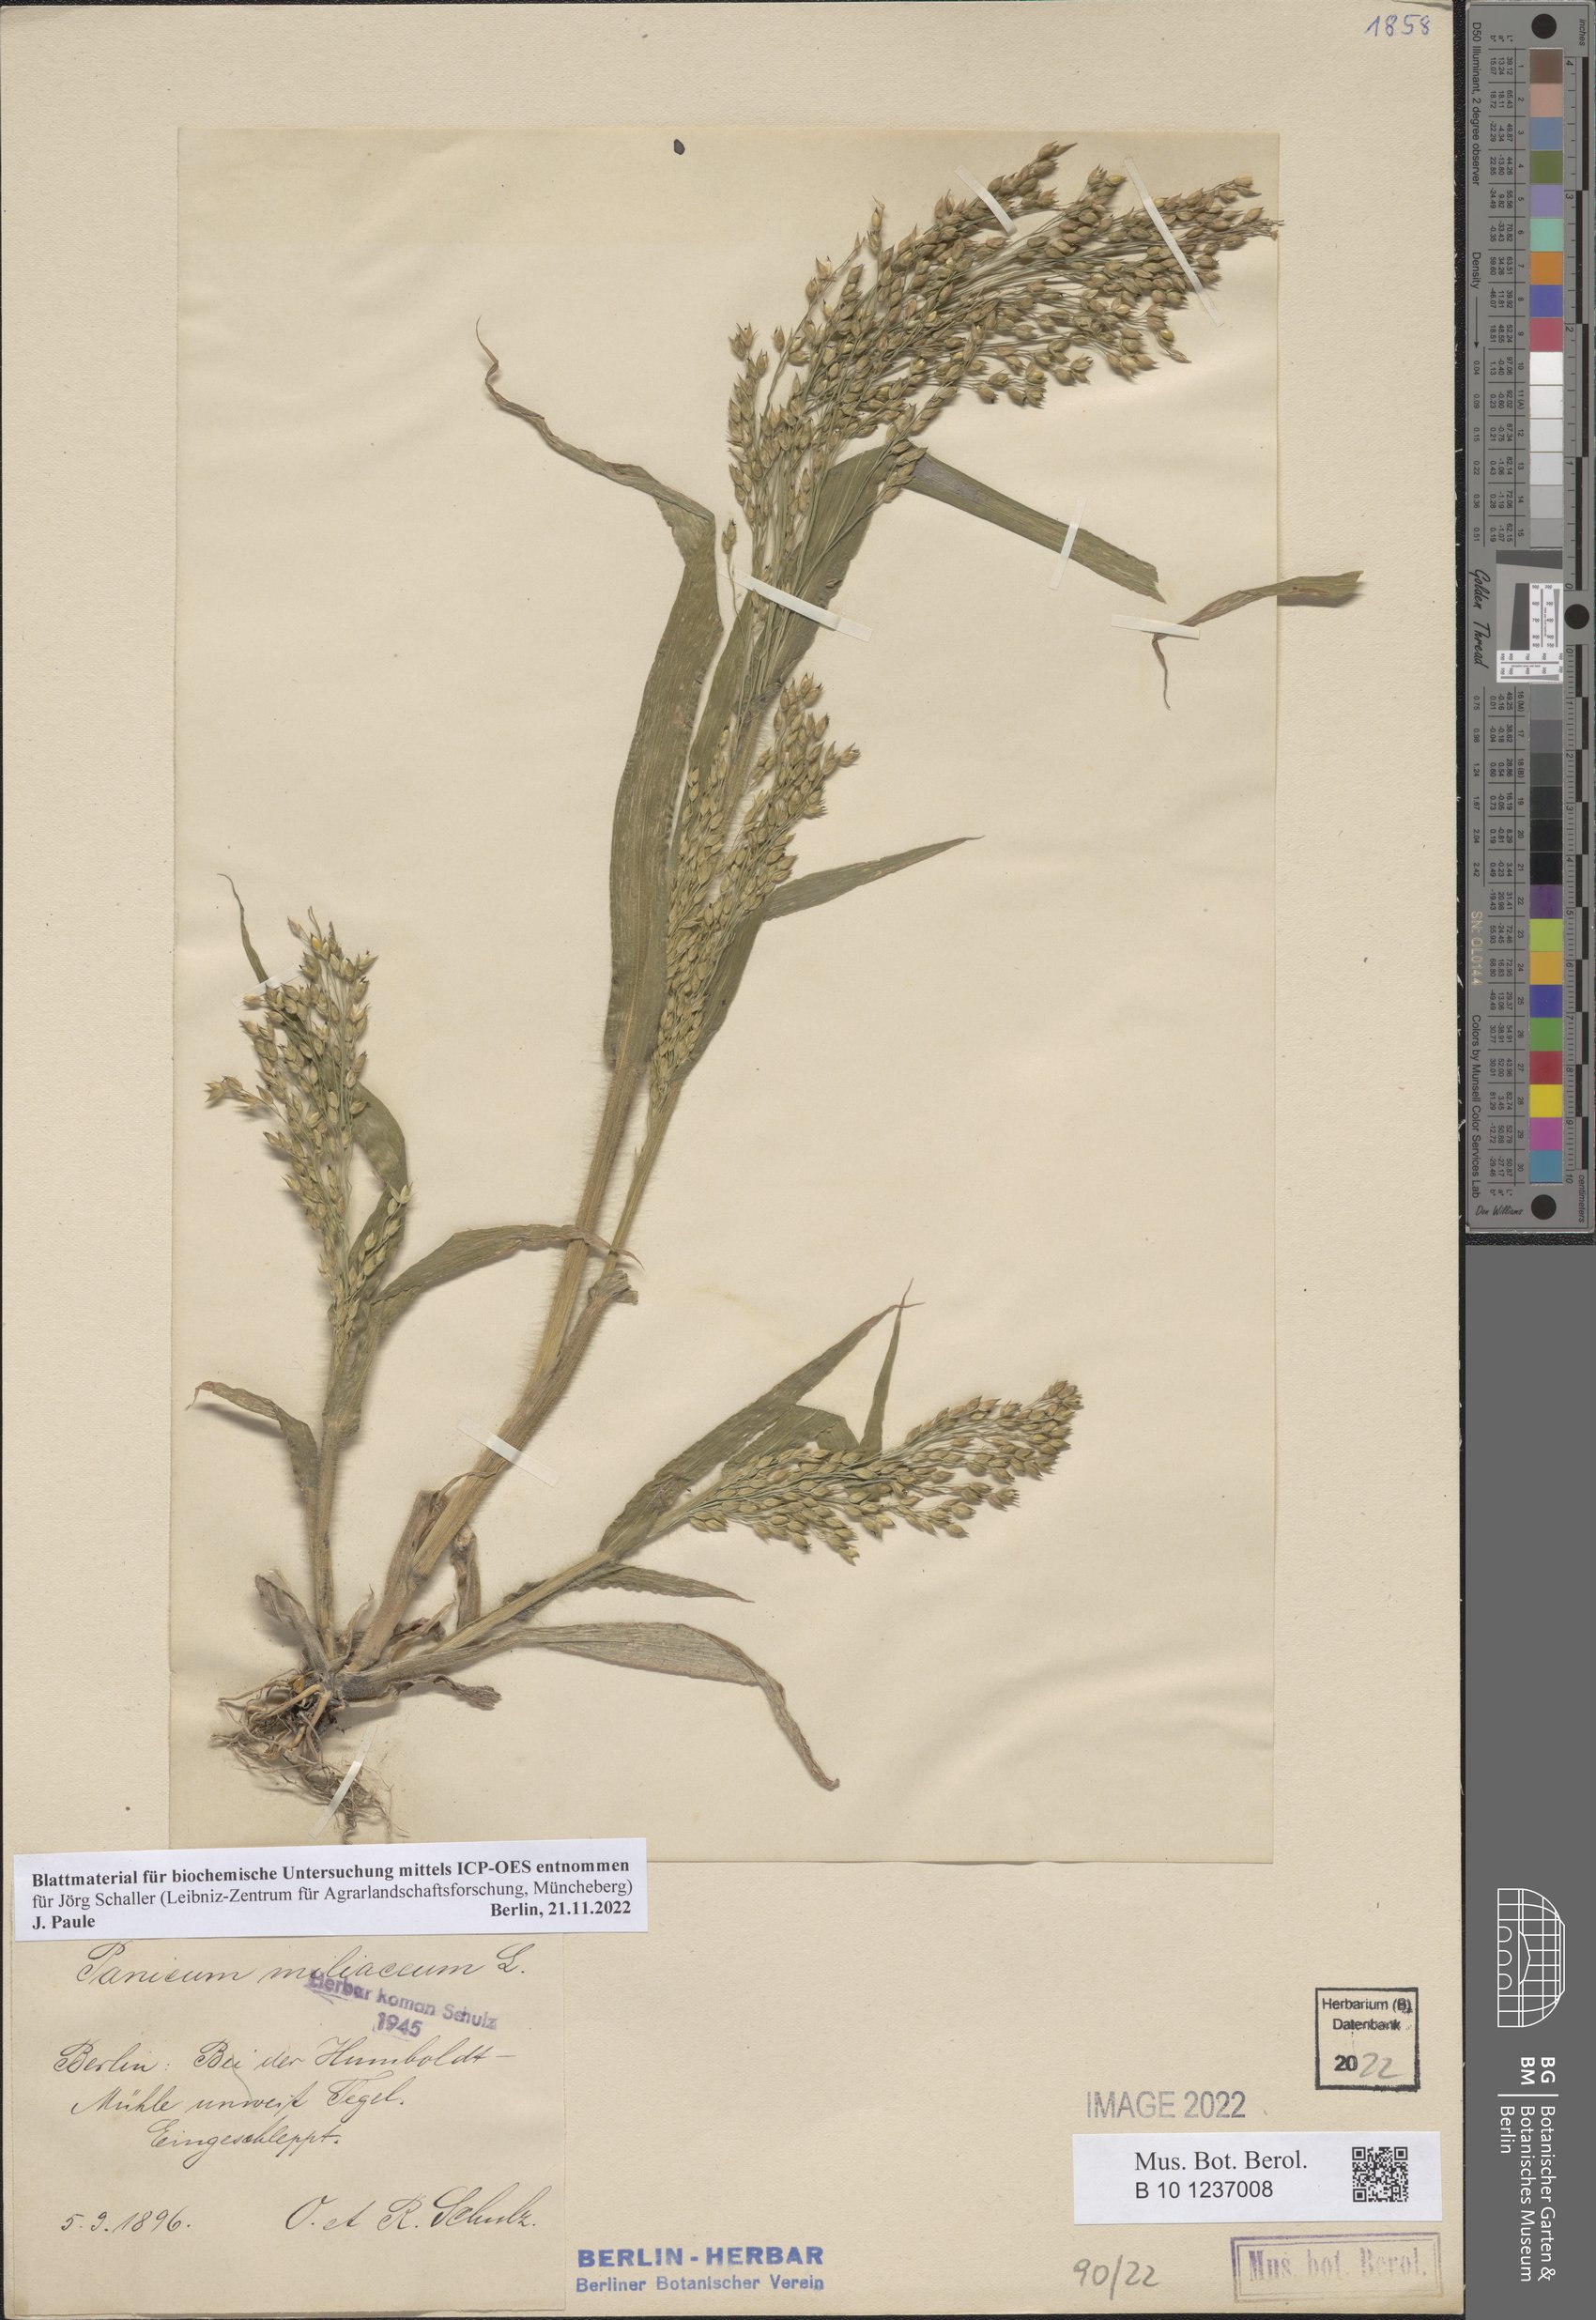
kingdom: Plantae
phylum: Tracheophyta
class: Liliopsida
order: Poales
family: Poaceae
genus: Panicum
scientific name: Panicum miliaceum
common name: Common millet
